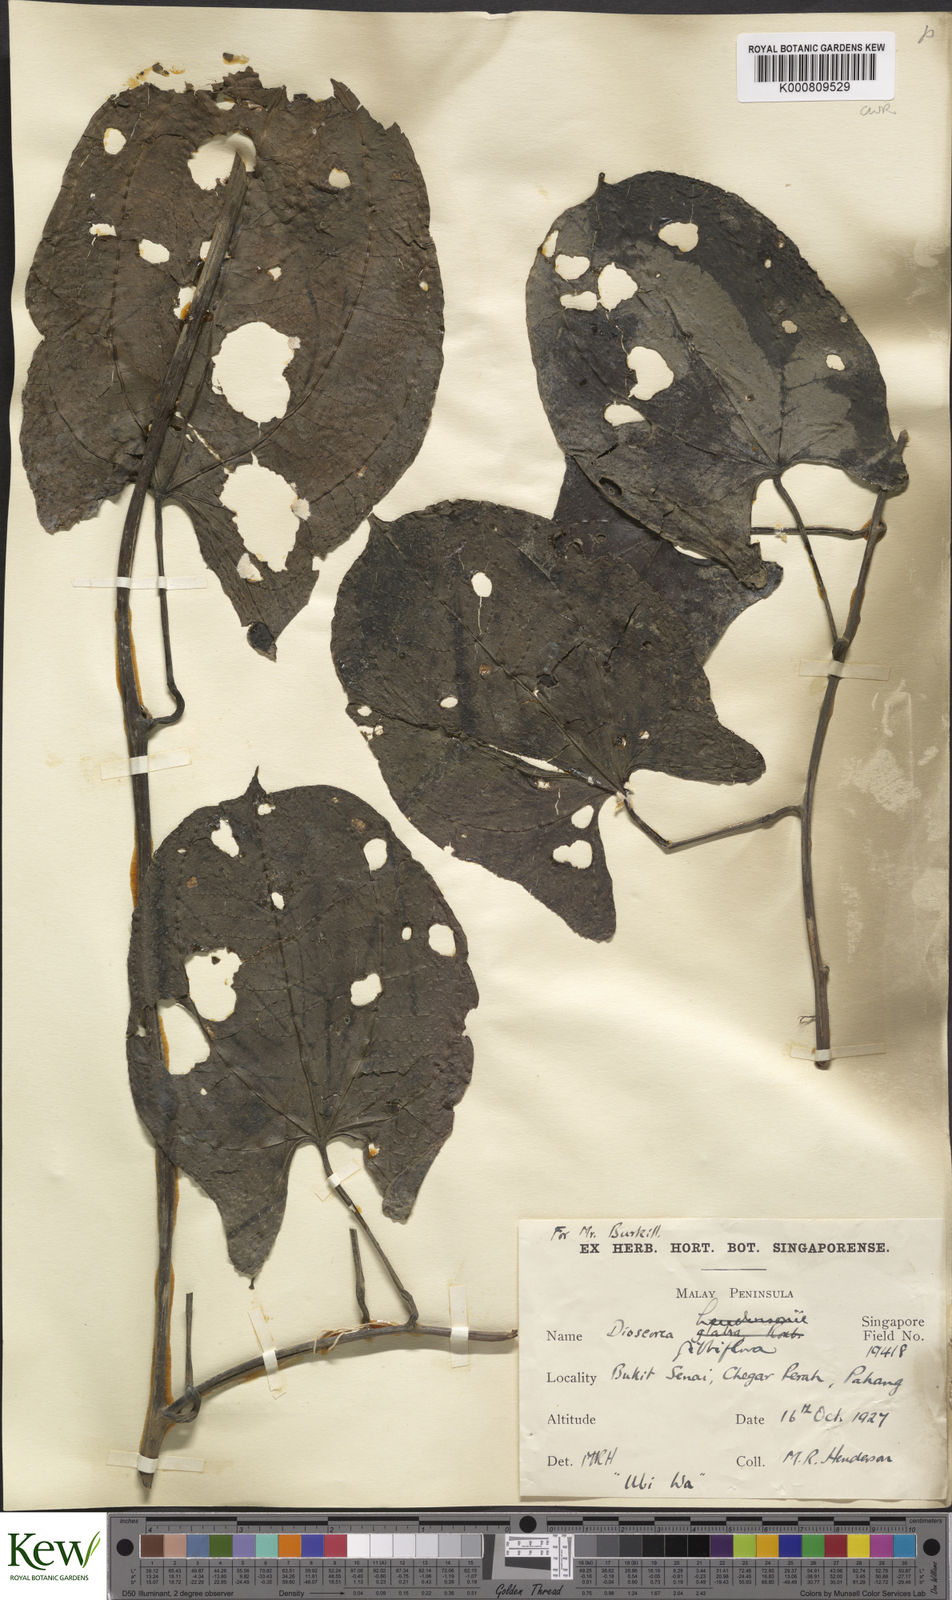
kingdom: Plantae
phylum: Tracheophyta
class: Liliopsida
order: Dioscoreales
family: Dioscoreaceae
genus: Dioscorea
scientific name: Dioscorea filiformis
